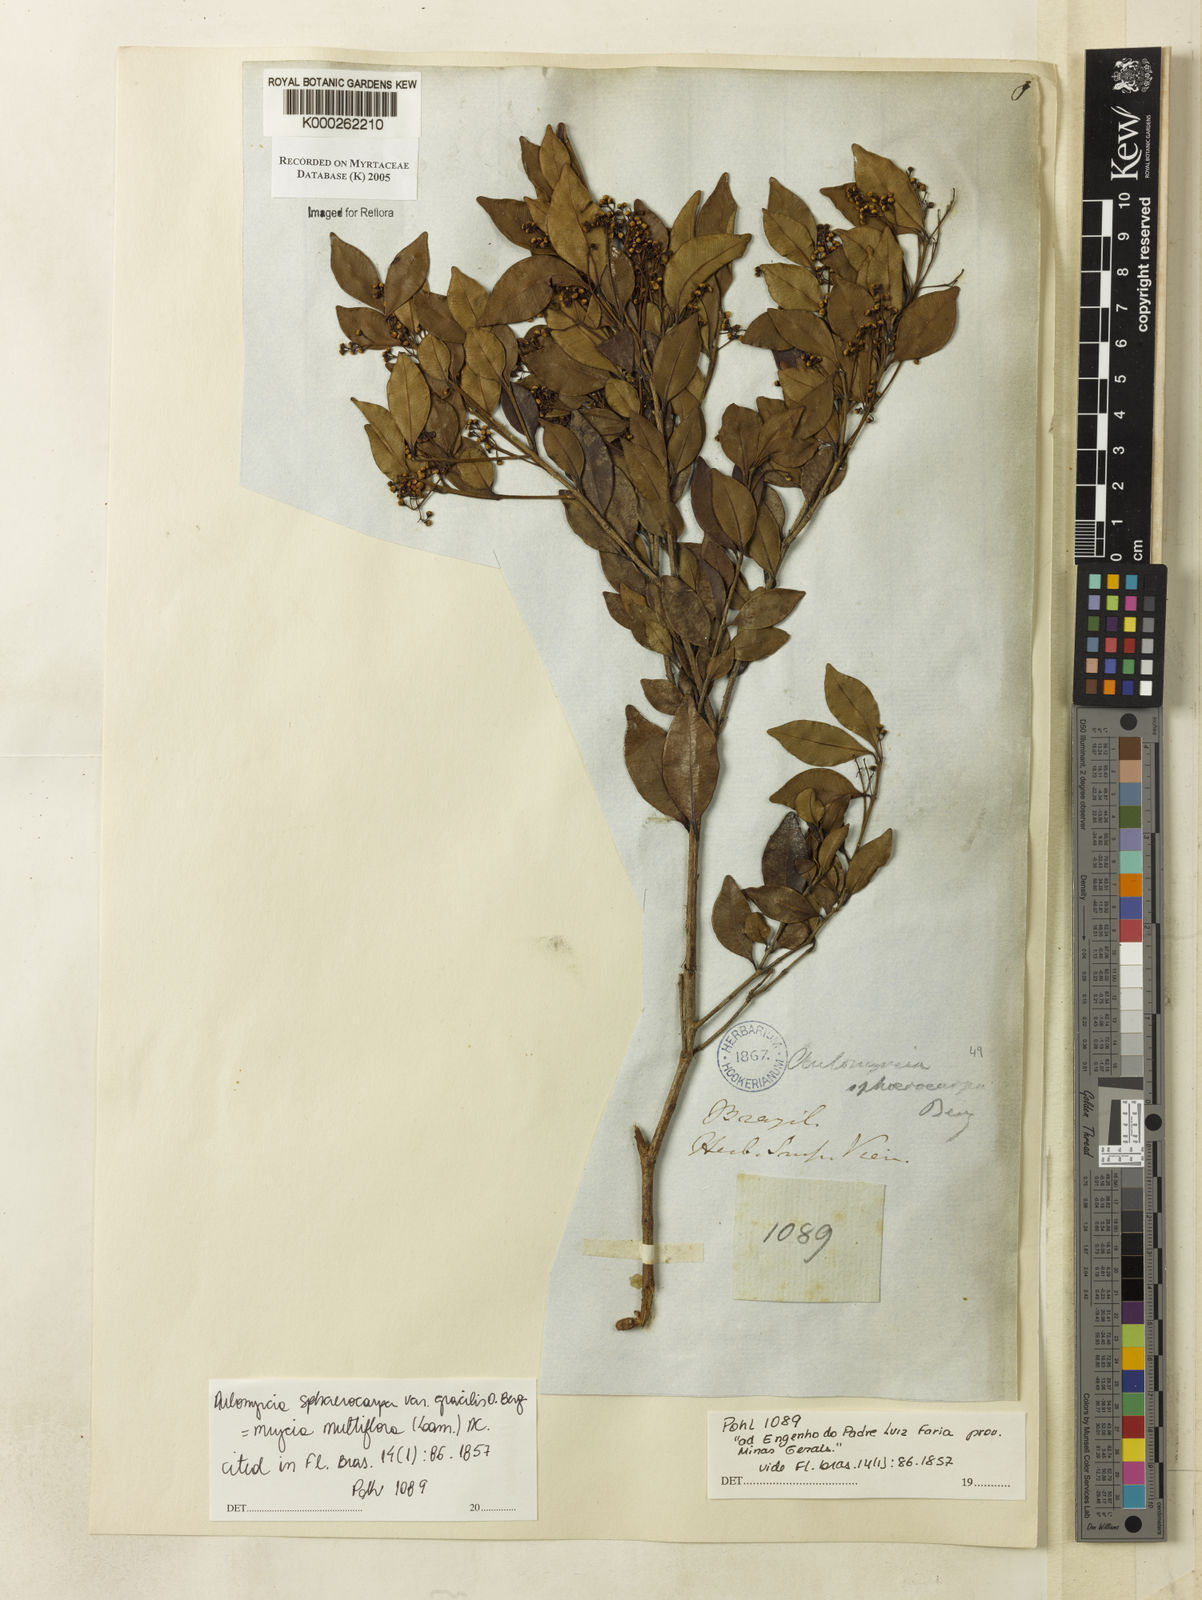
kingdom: Plantae
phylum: Tracheophyta
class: Magnoliopsida
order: Myrtales
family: Myrtaceae
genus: Myrcia
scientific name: Myrcia splendens
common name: Surinam cherry
